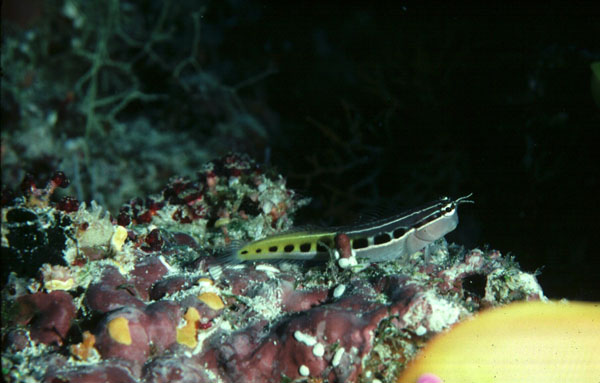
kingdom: Animalia
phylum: Chordata
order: Perciformes
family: Blenniidae
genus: Ecsenius
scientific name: Ecsenius lineatus
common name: Linear blenny
